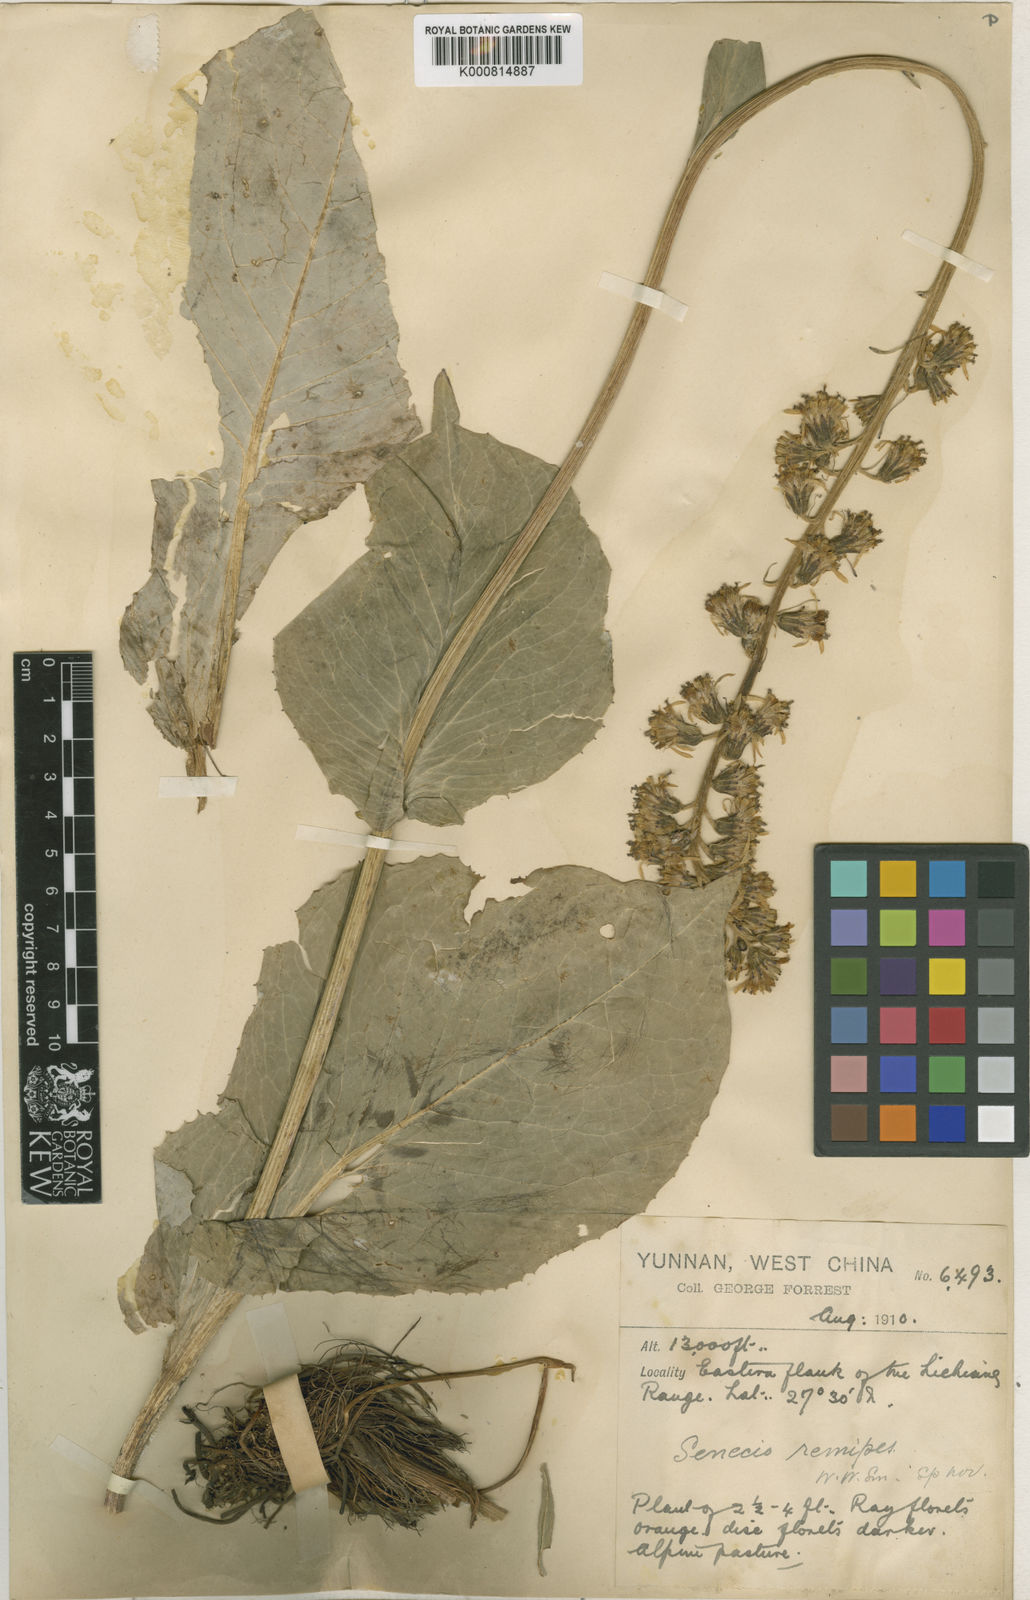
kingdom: Plantae
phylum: Tracheophyta
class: Magnoliopsida
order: Asterales
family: Asteraceae
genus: Ligularia
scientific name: Ligularia tsangchanensis
